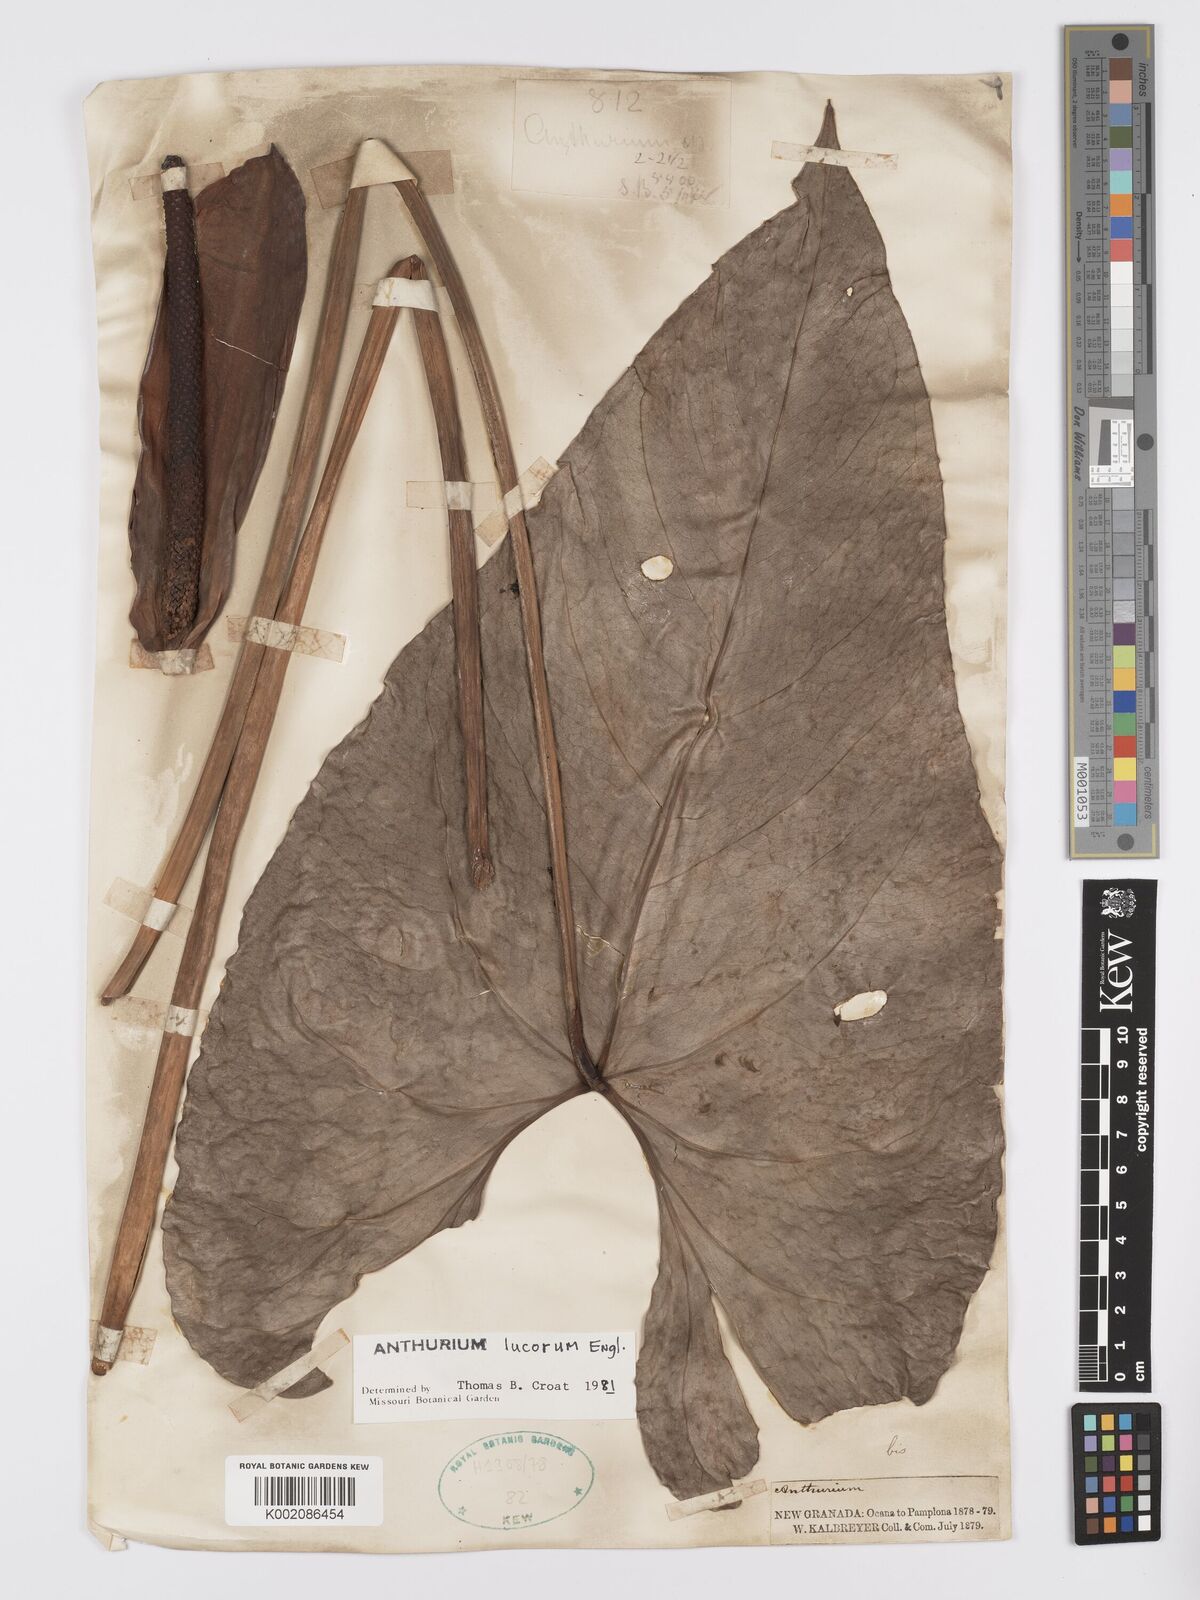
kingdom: Plantae
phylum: Tracheophyta
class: Liliopsida
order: Alismatales
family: Araceae
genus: Anthurium
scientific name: Anthurium lucorum
